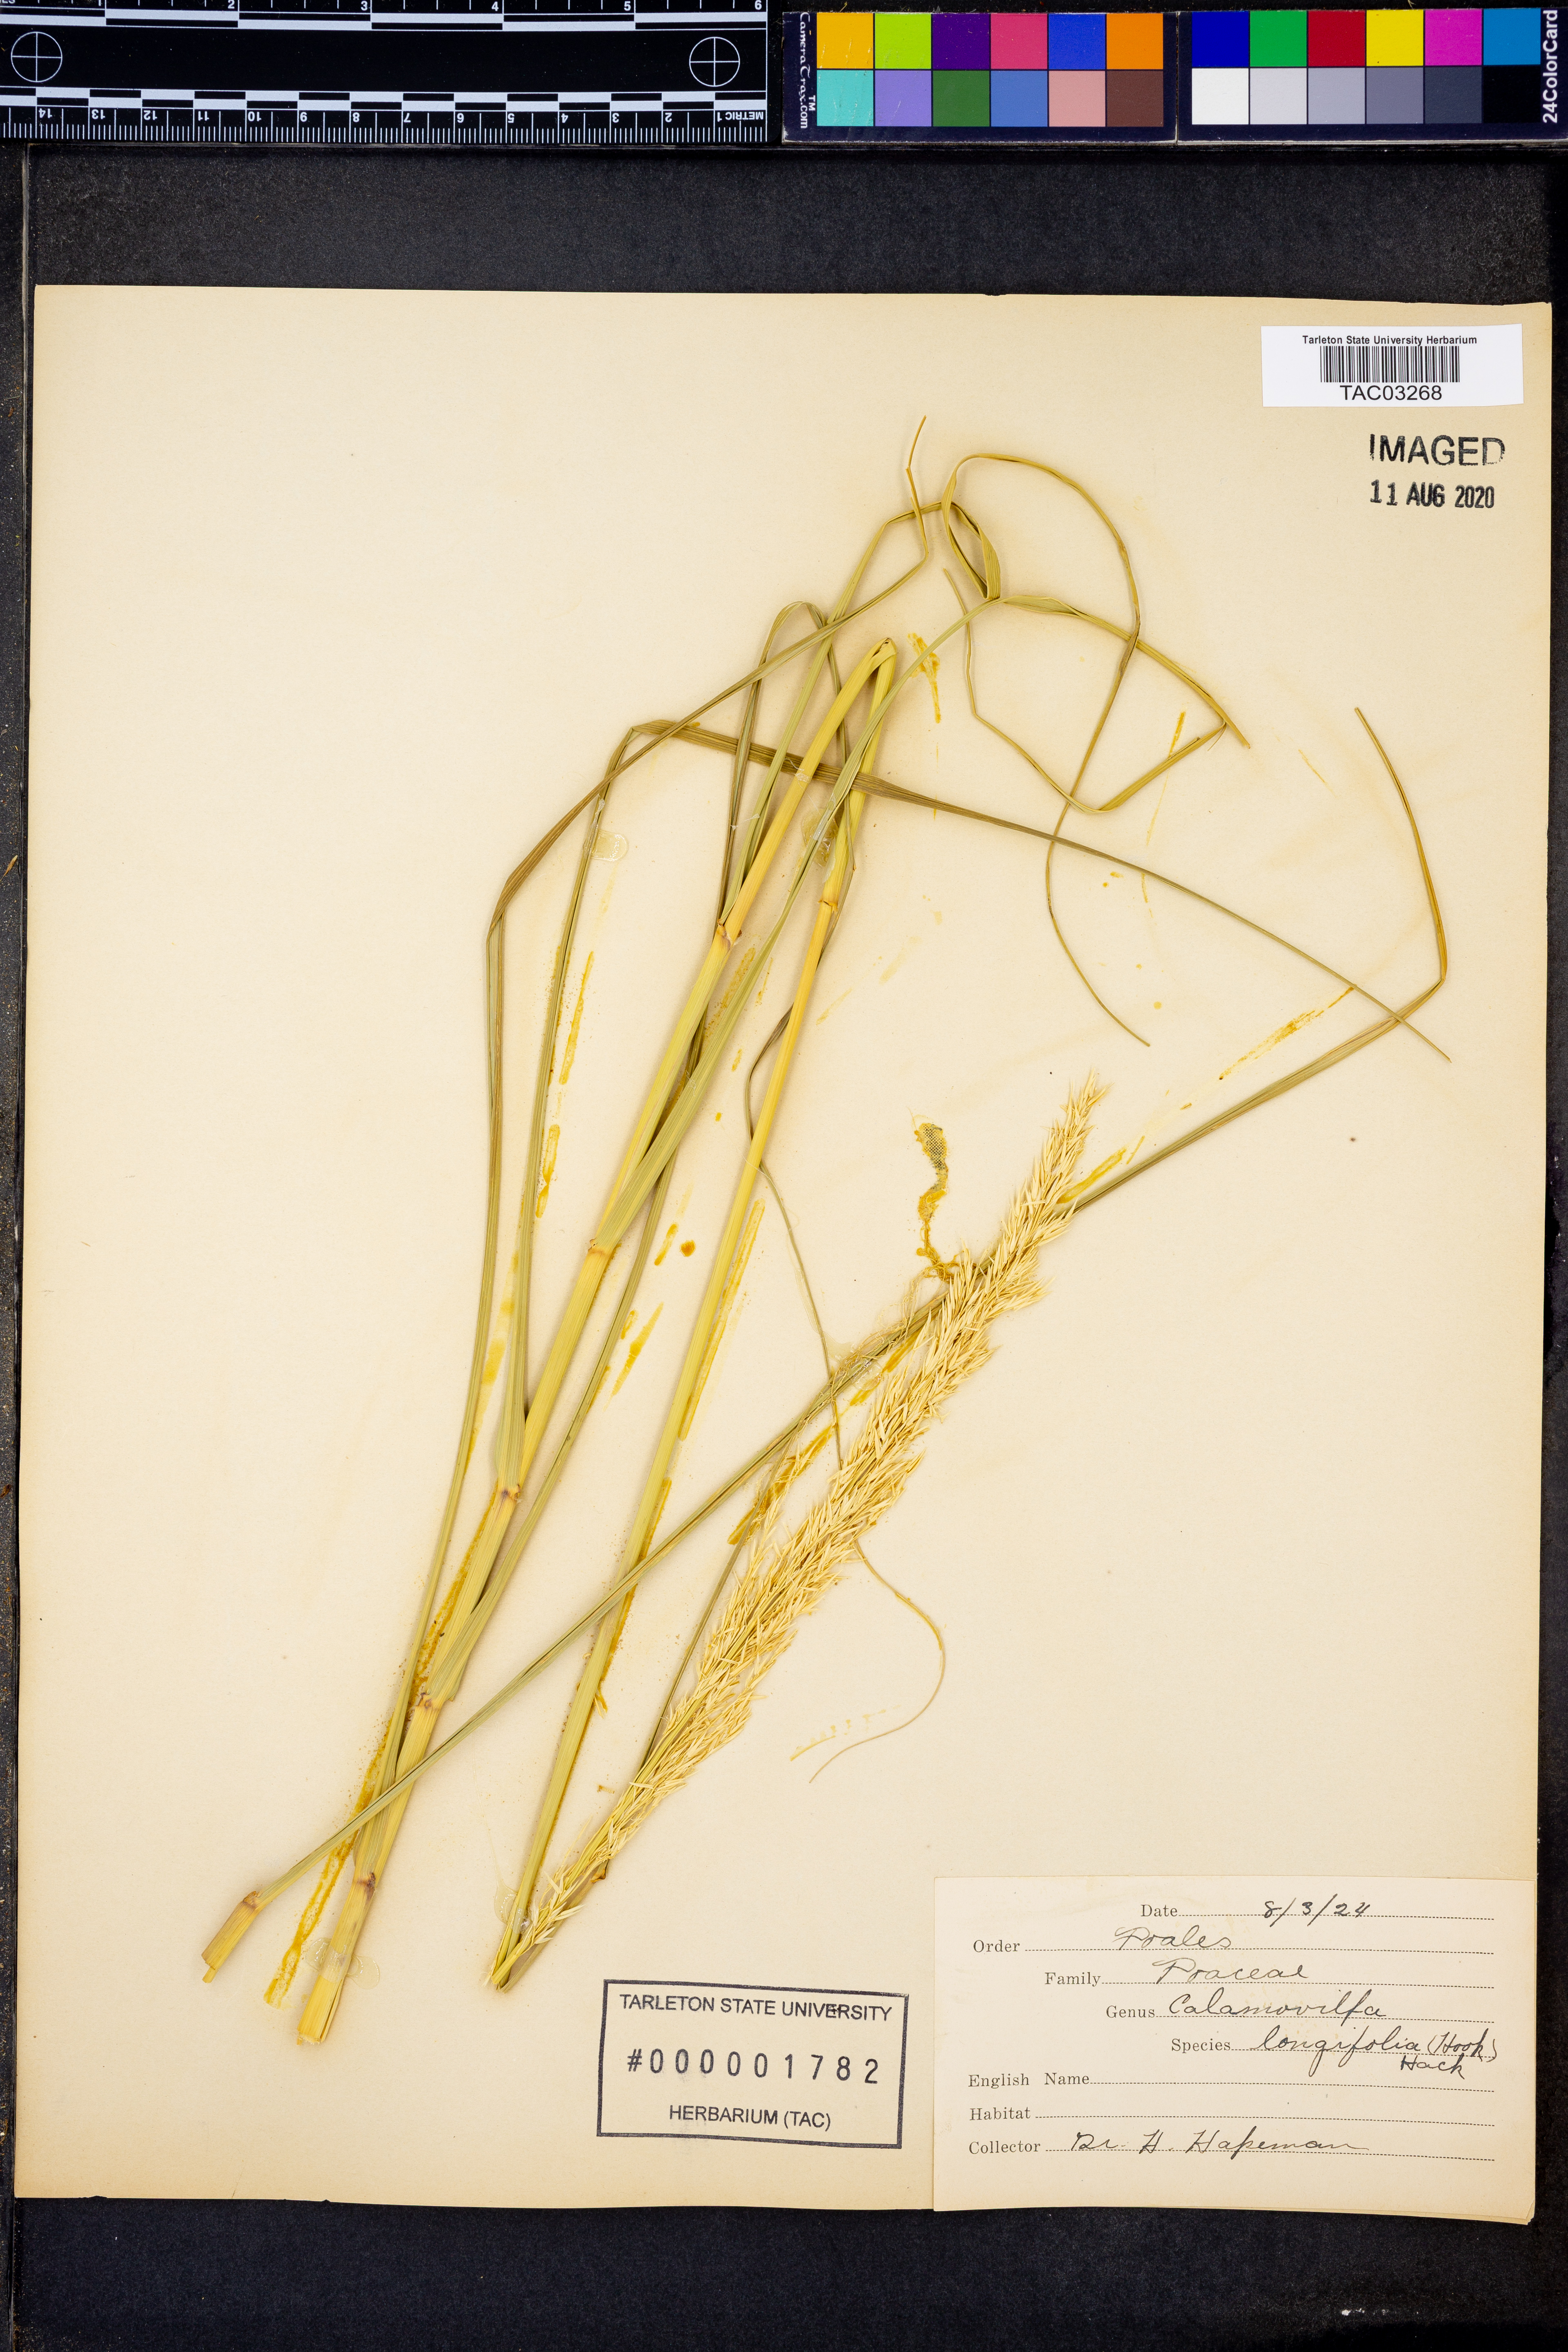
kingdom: Plantae
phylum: Tracheophyta
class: Liliopsida
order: Poales
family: Poaceae
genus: Sporobolus
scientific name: Sporobolus rigidus
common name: Prairie sandreed
